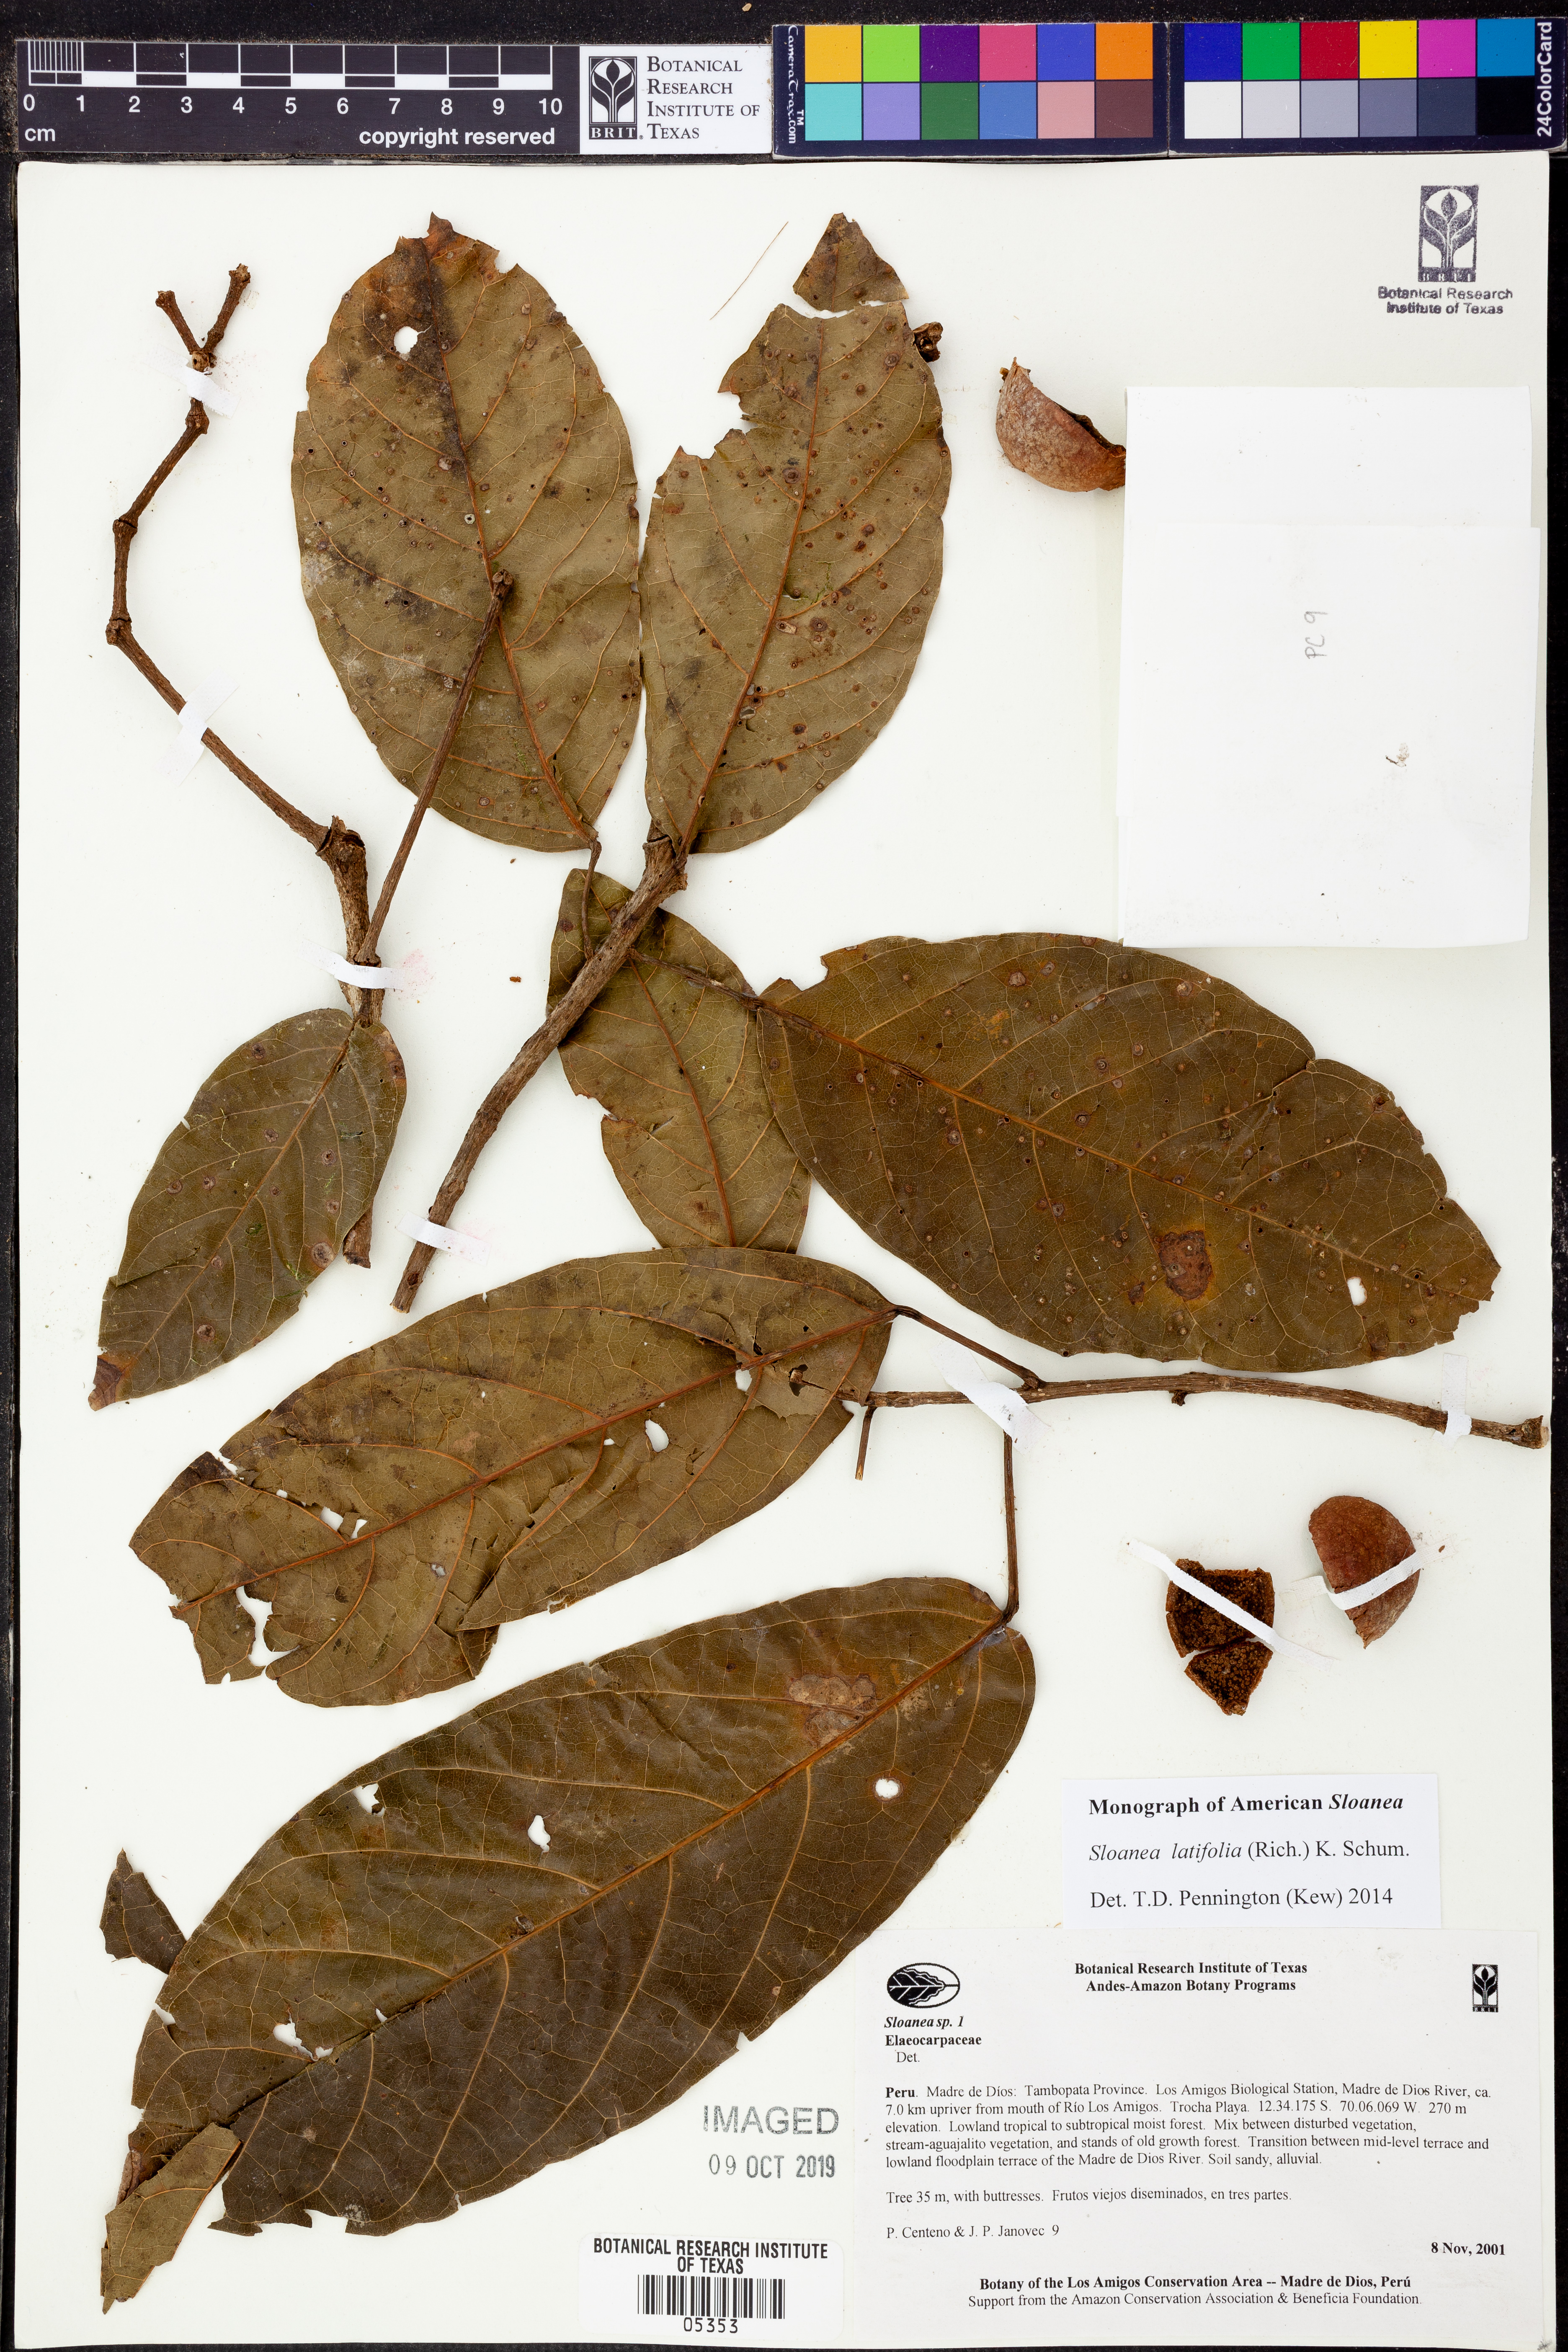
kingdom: Plantae
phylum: Tracheophyta
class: Magnoliopsida
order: Oxalidales
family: Elaeocarpaceae
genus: Sloanea
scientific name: Sloanea
